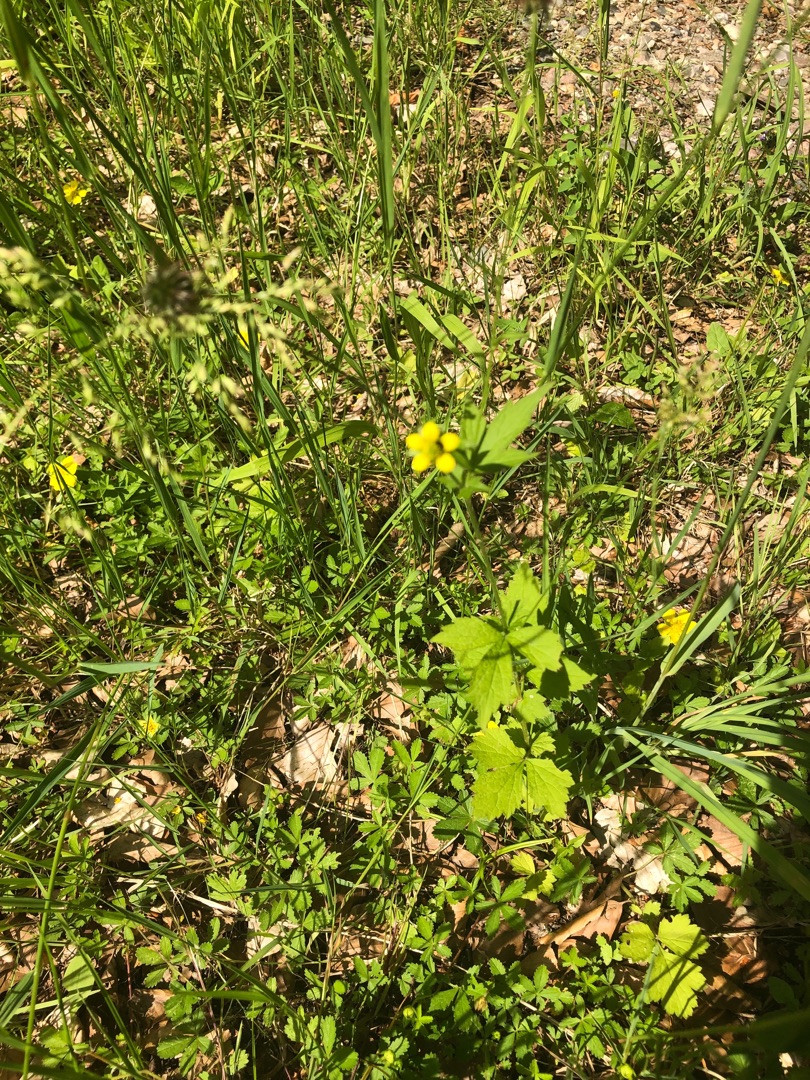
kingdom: Plantae
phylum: Tracheophyta
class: Magnoliopsida
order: Rosales
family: Rosaceae
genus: Geum
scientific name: Geum urbanum
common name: Feber-nellikerod
